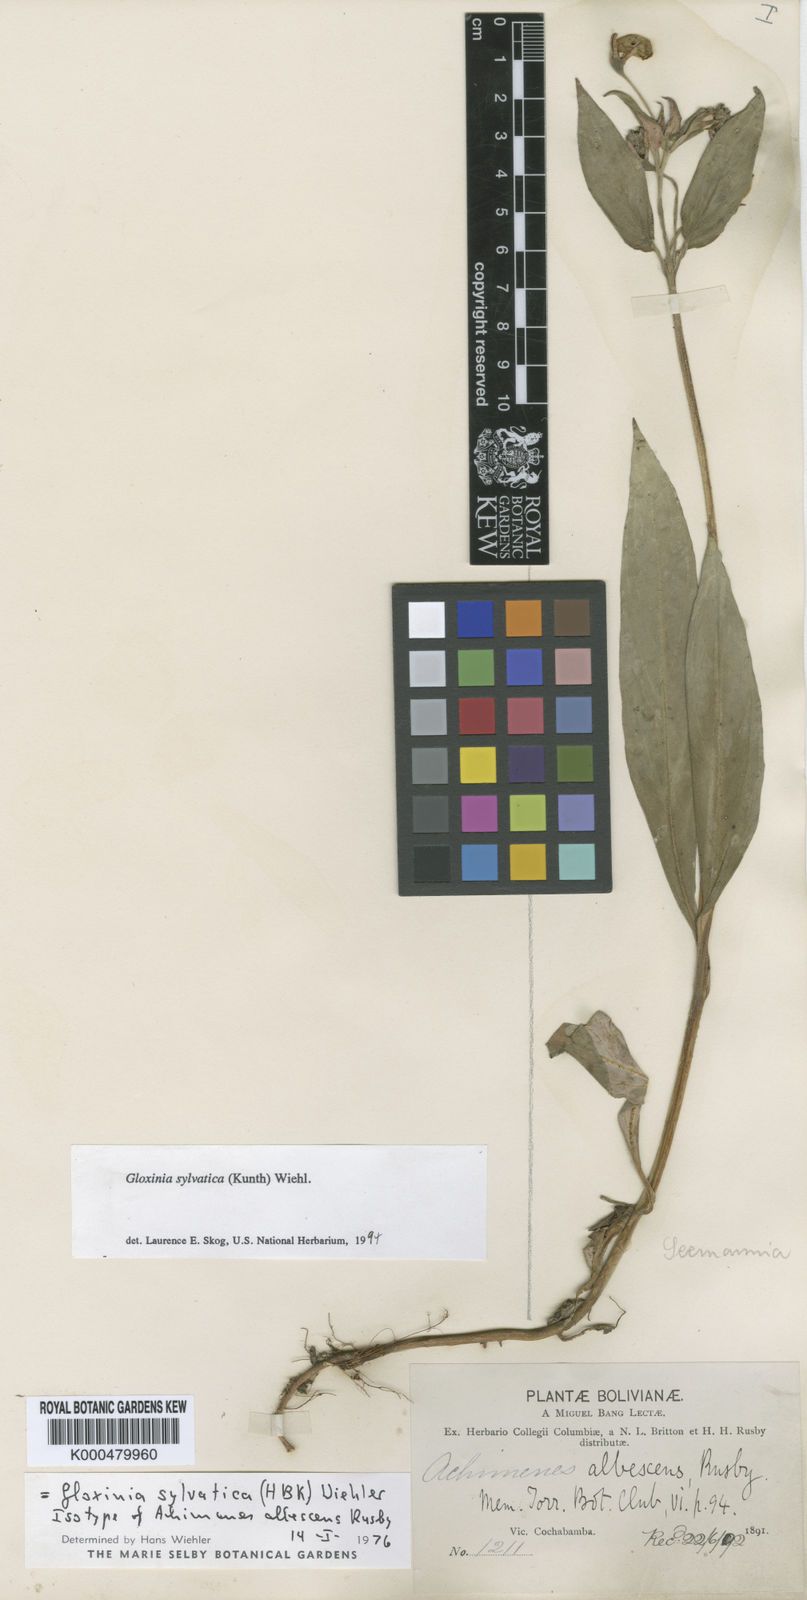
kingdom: Plantae
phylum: Tracheophyta
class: Magnoliopsida
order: Lamiales
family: Gesneriaceae
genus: Seemannia
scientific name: Seemannia sylvatica
